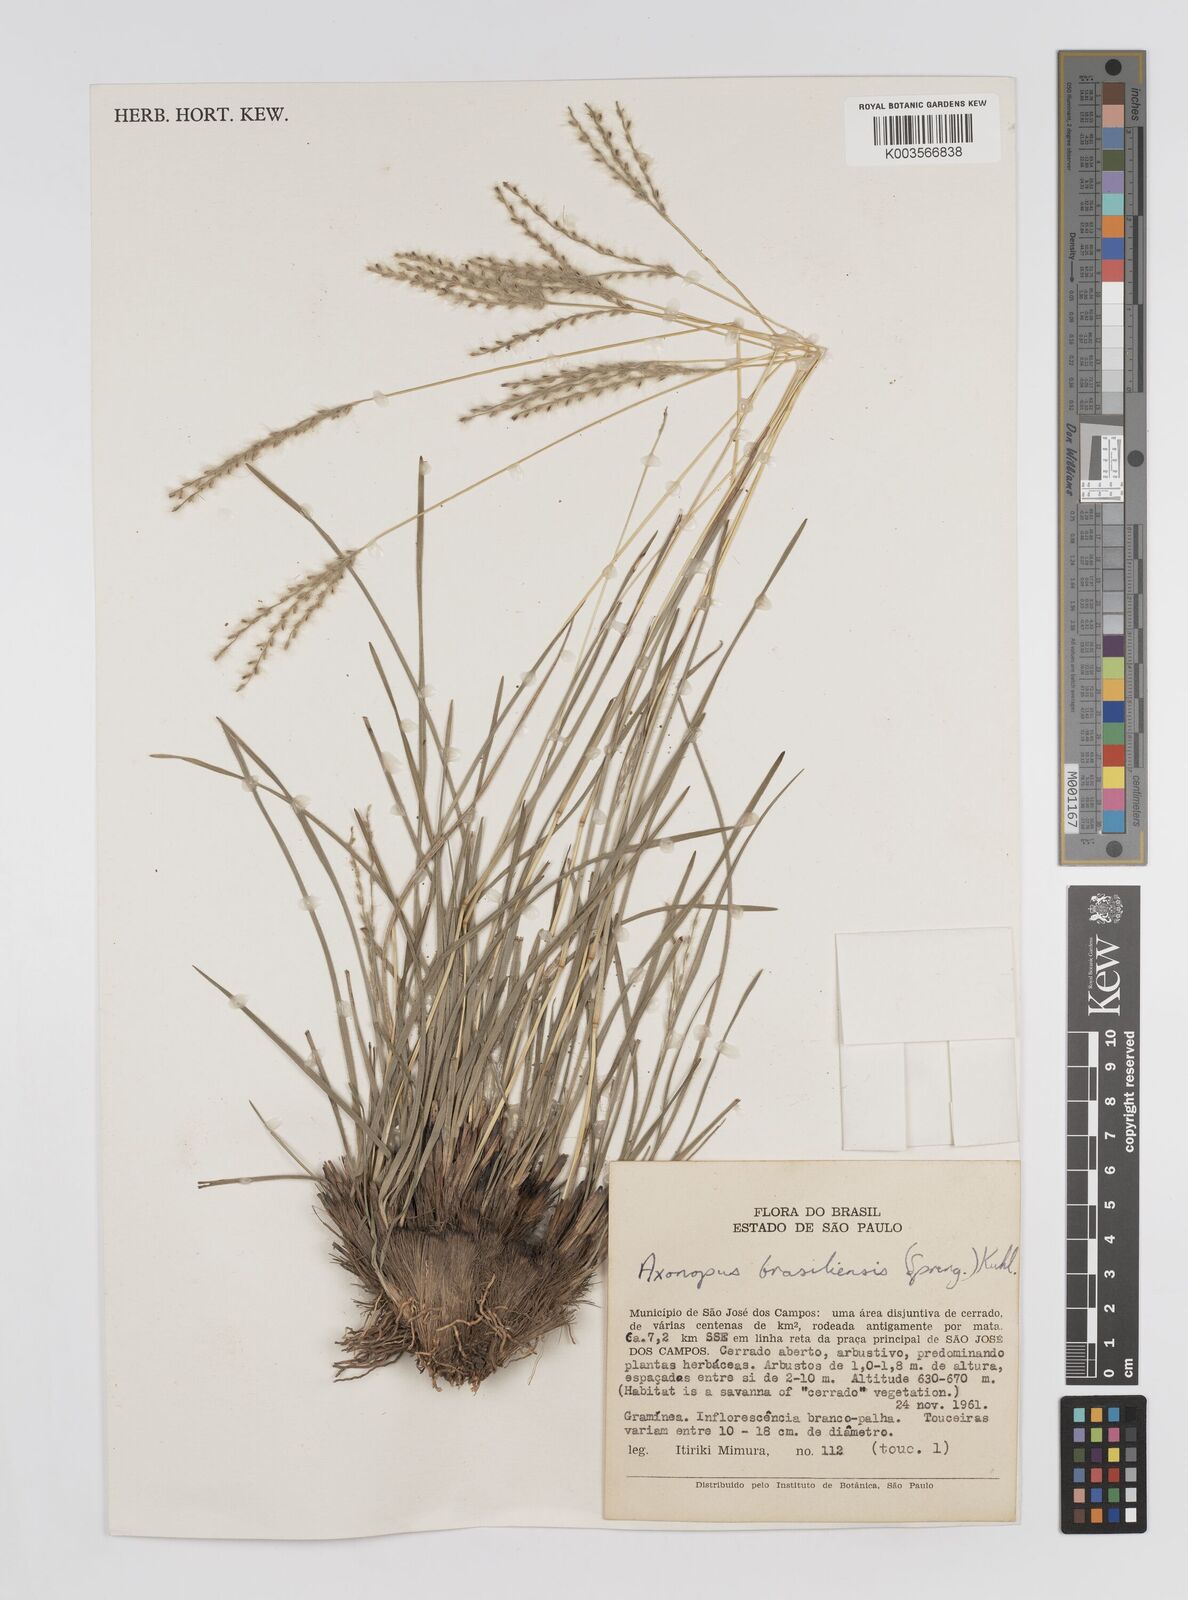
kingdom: Plantae
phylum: Tracheophyta
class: Liliopsida
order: Poales
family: Poaceae
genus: Axonopus
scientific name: Axonopus brasiliensis
